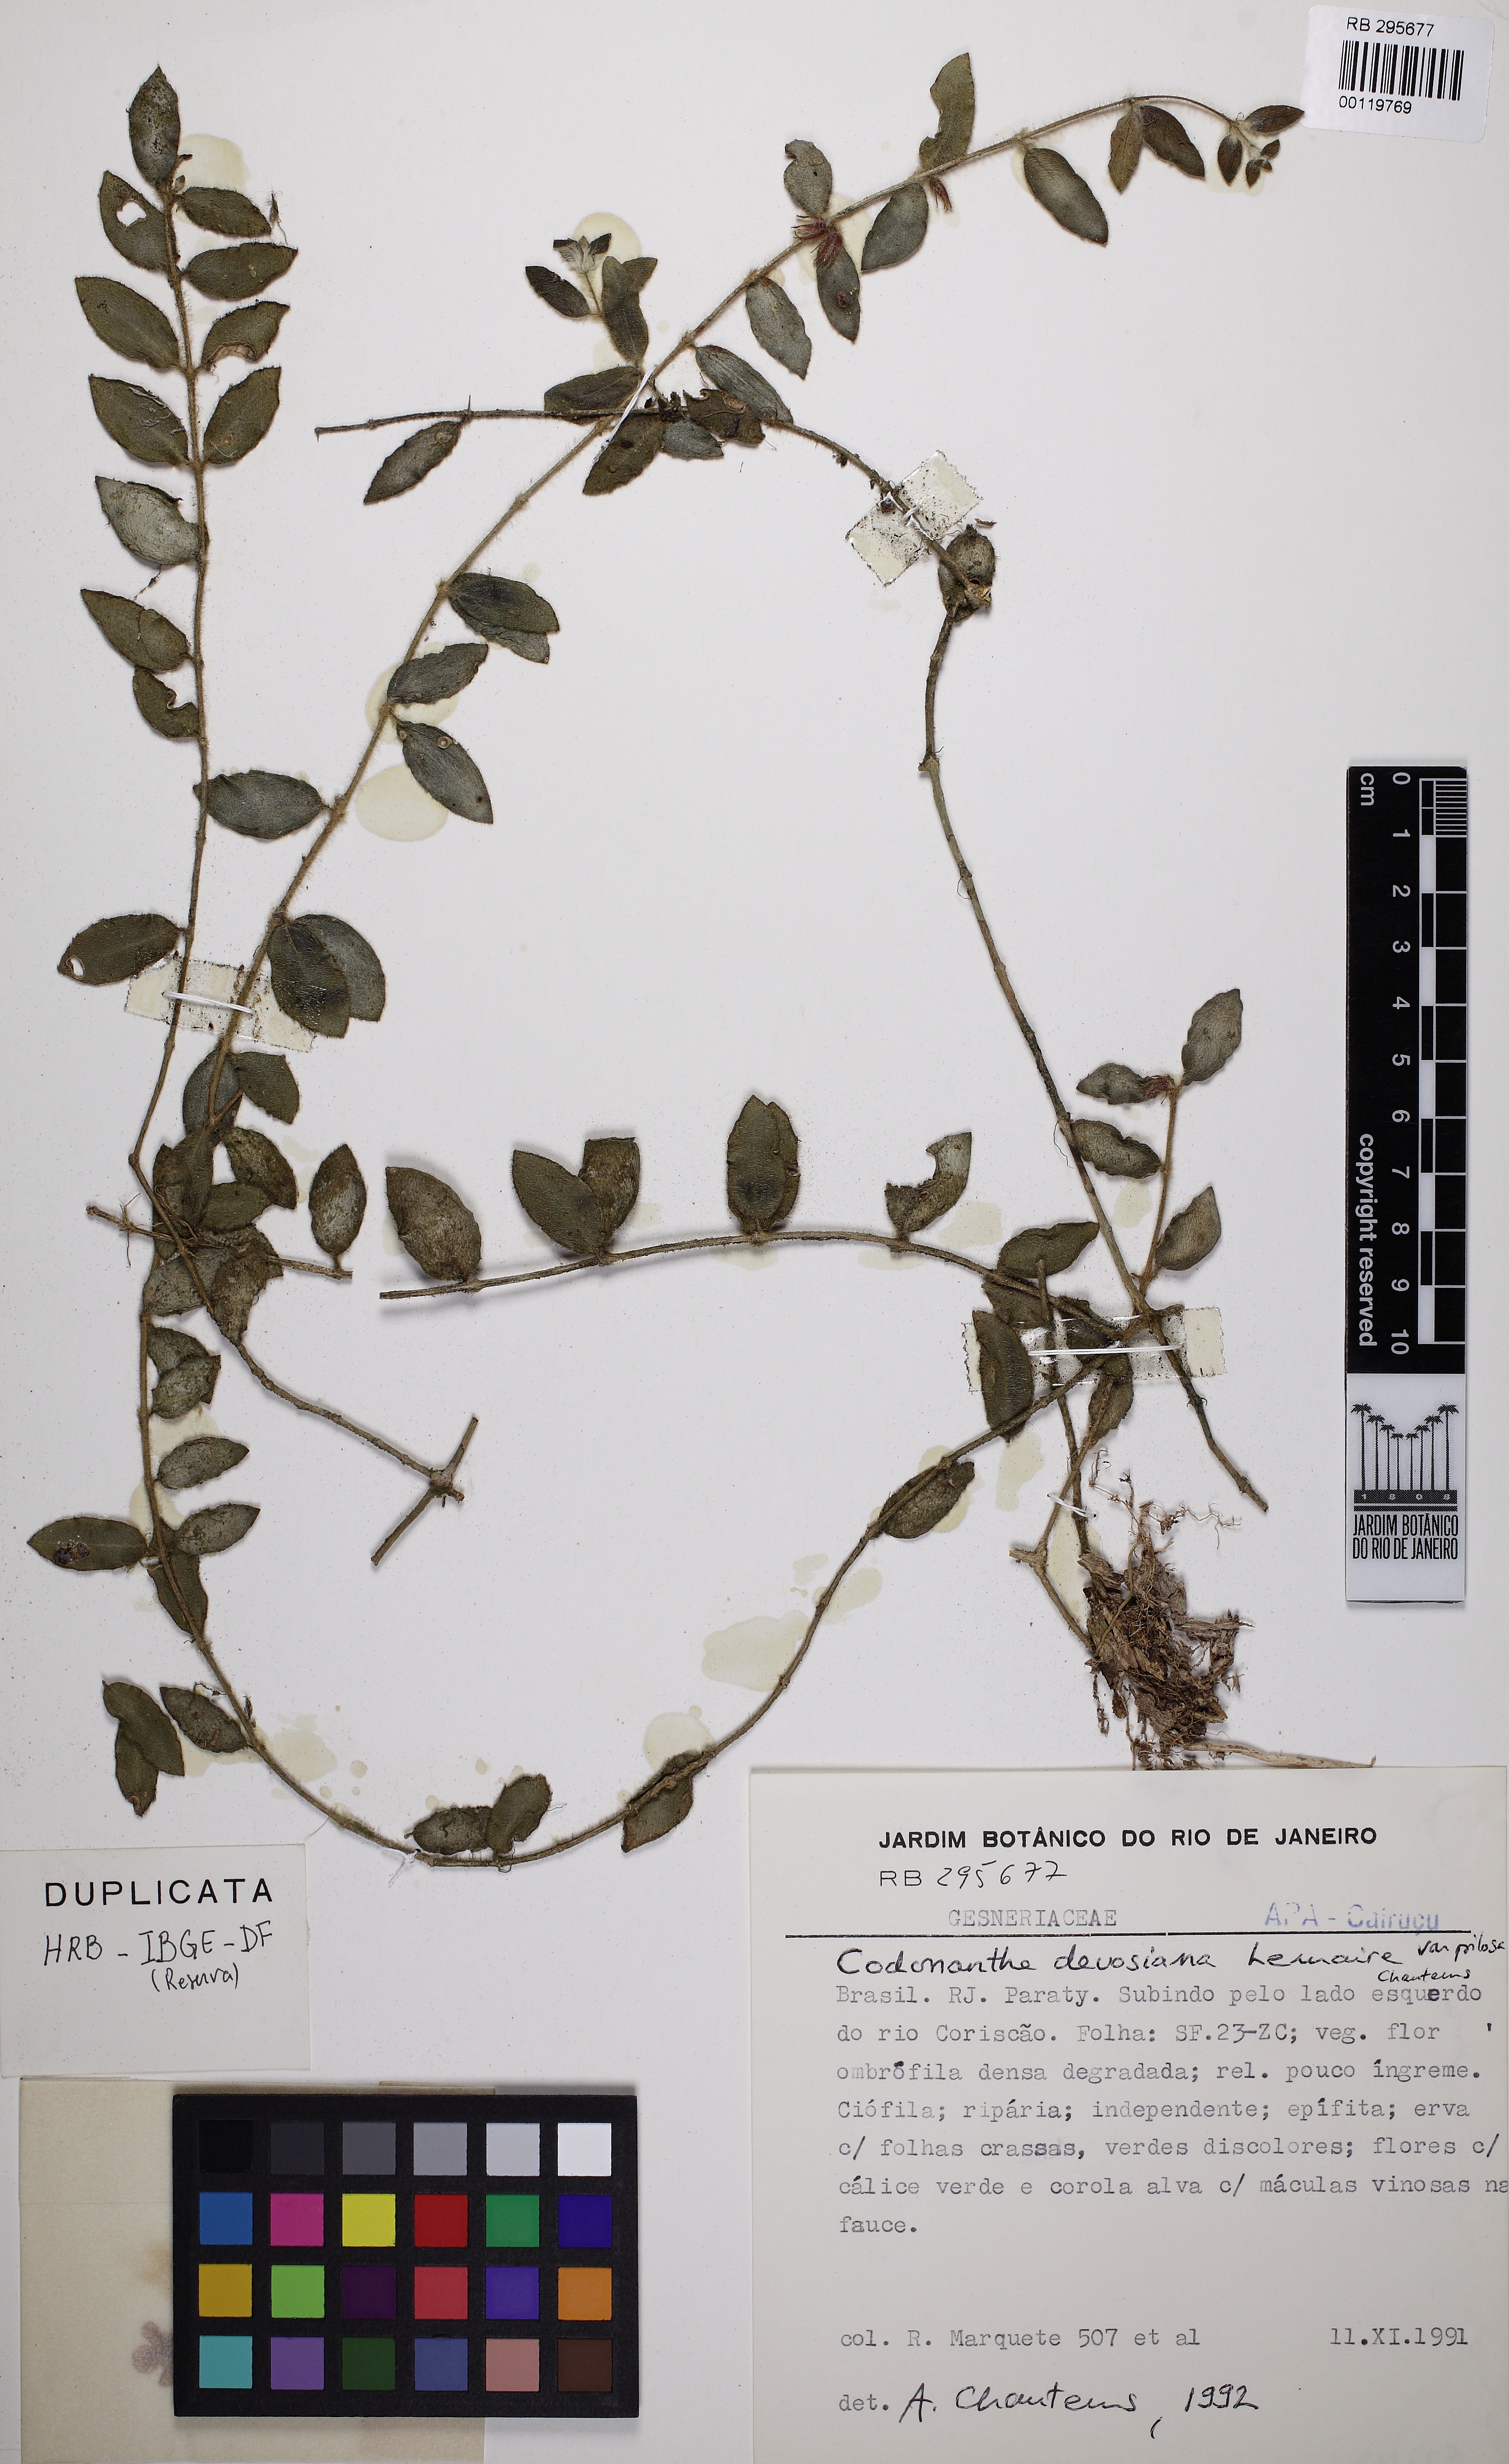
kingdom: Plantae
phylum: Tracheophyta
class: Magnoliopsida
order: Lamiales
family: Gesneriaceae
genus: Codonanthe
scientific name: Codonanthe devosiana
